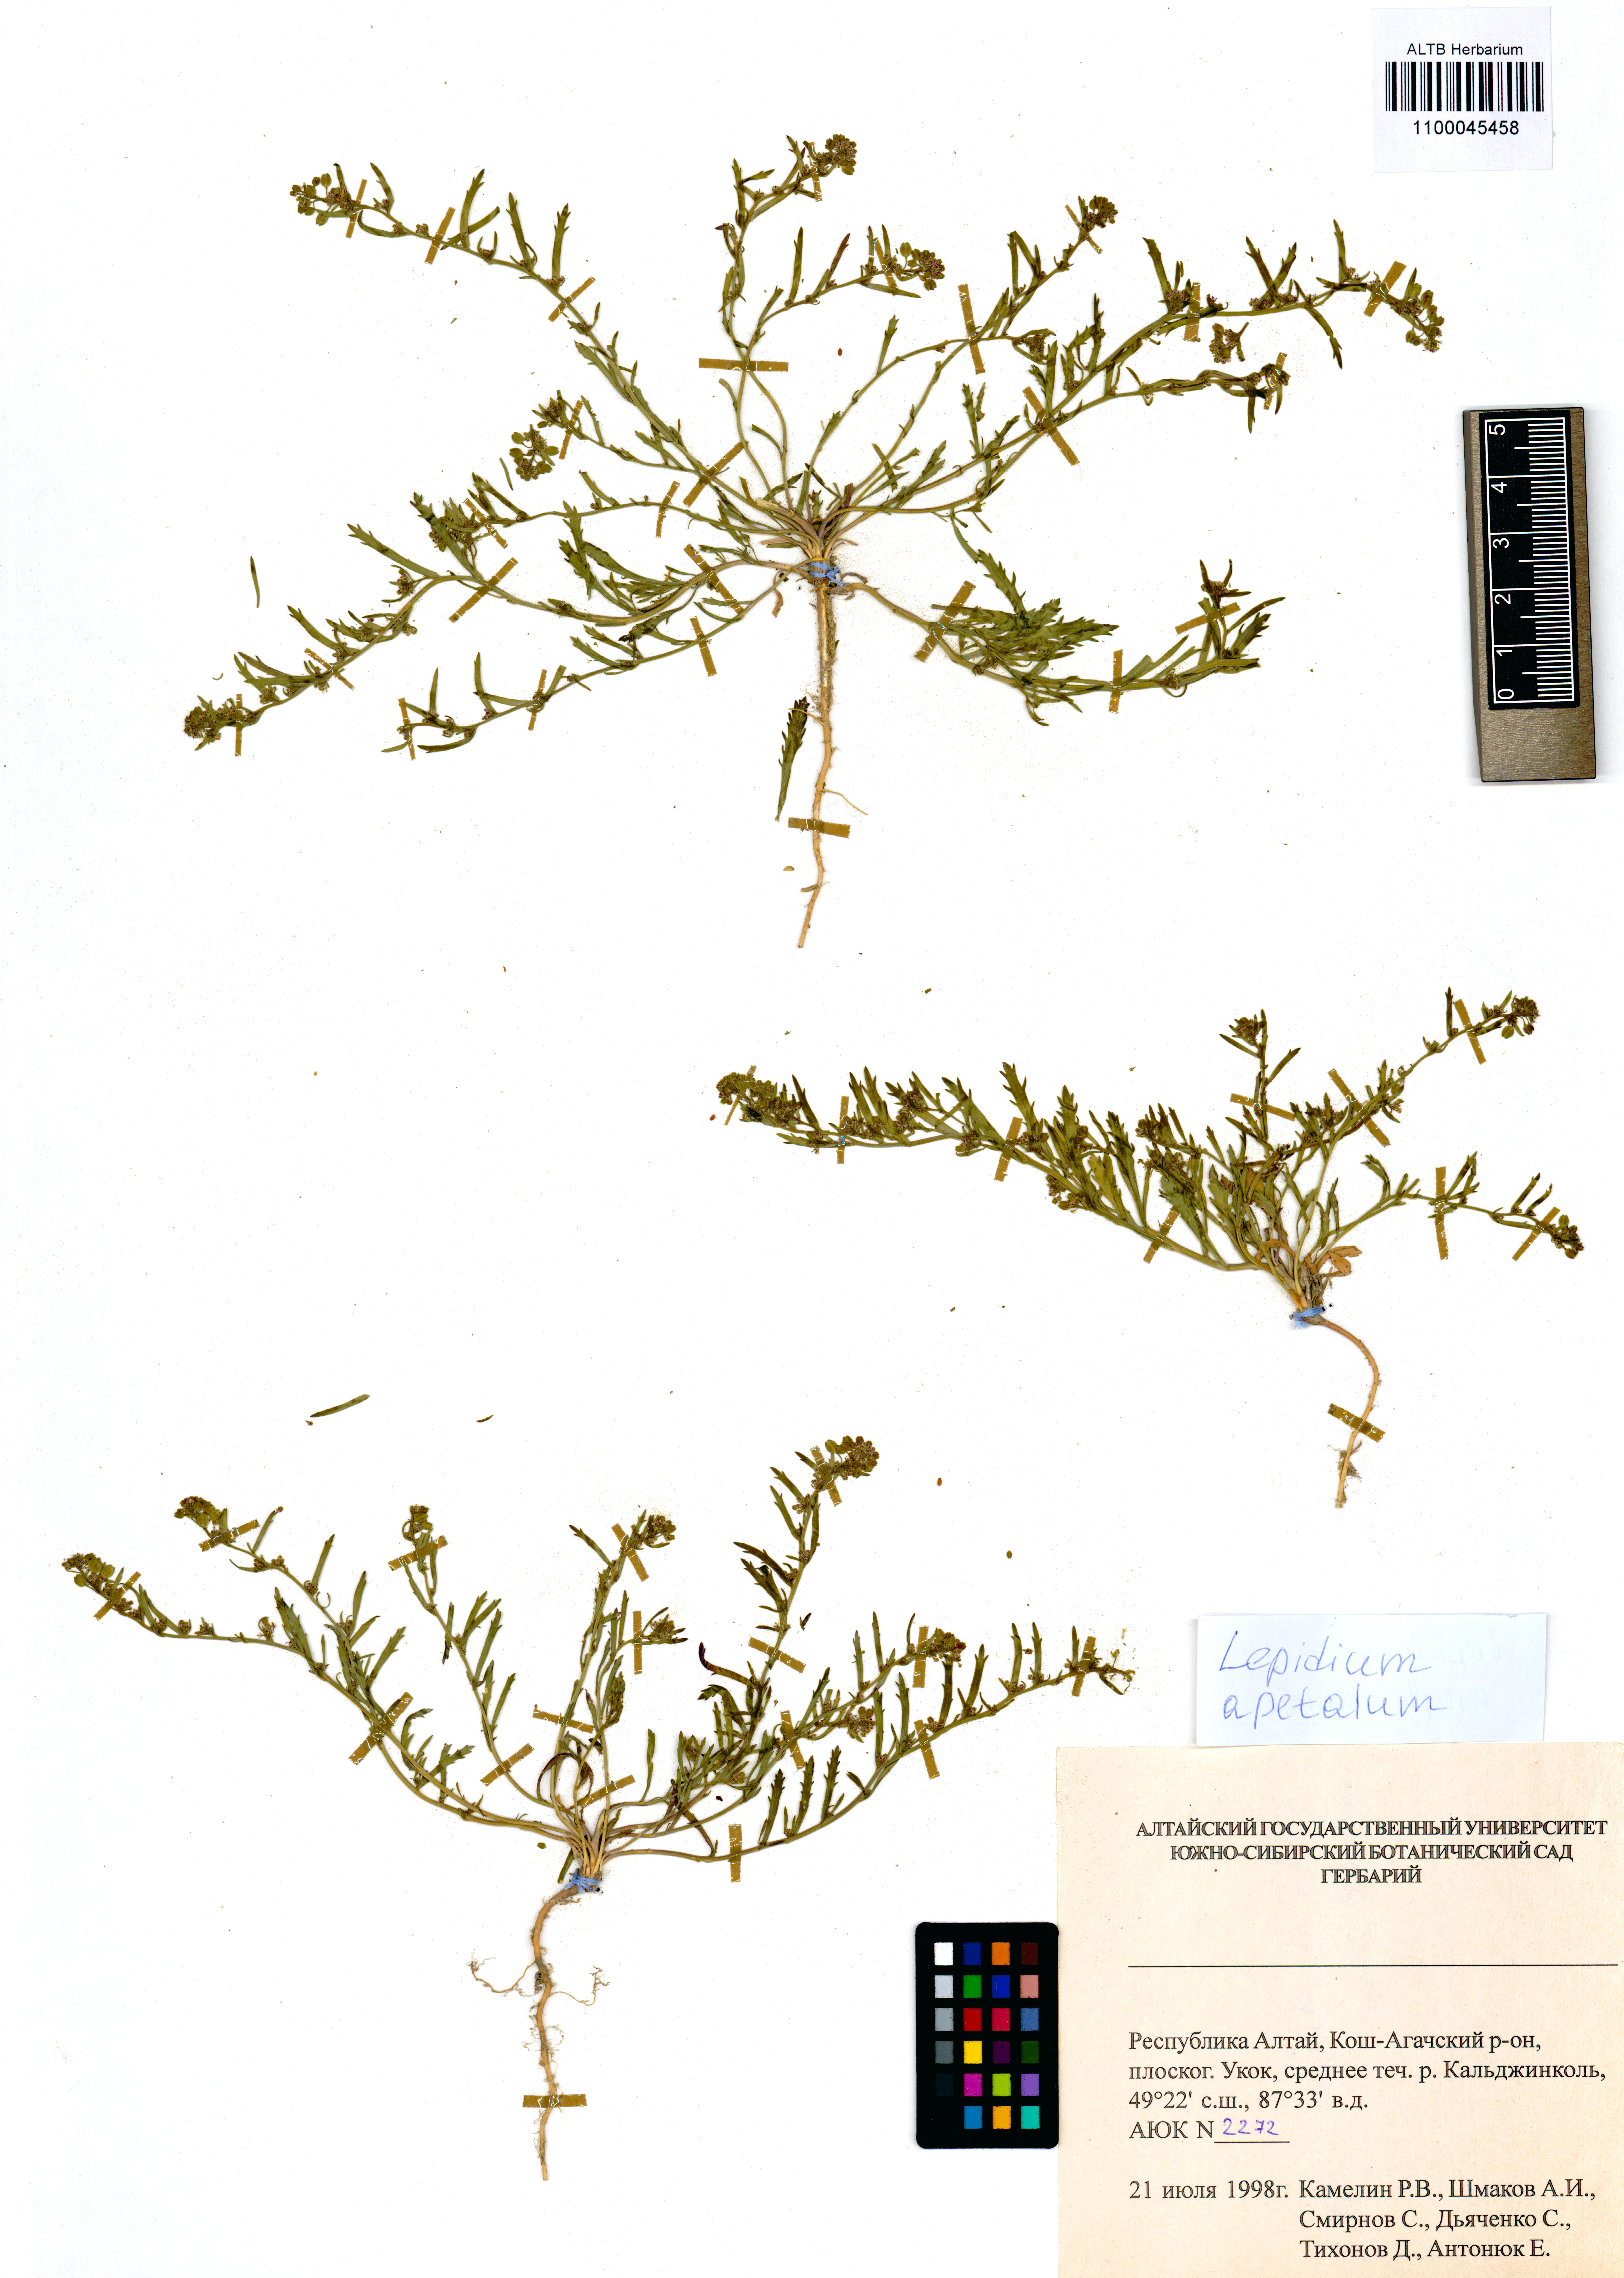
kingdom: Plantae
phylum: Tracheophyta
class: Magnoliopsida
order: Brassicales
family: Brassicaceae
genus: Lepidium
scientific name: Lepidium apetalum
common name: Pepperweed
